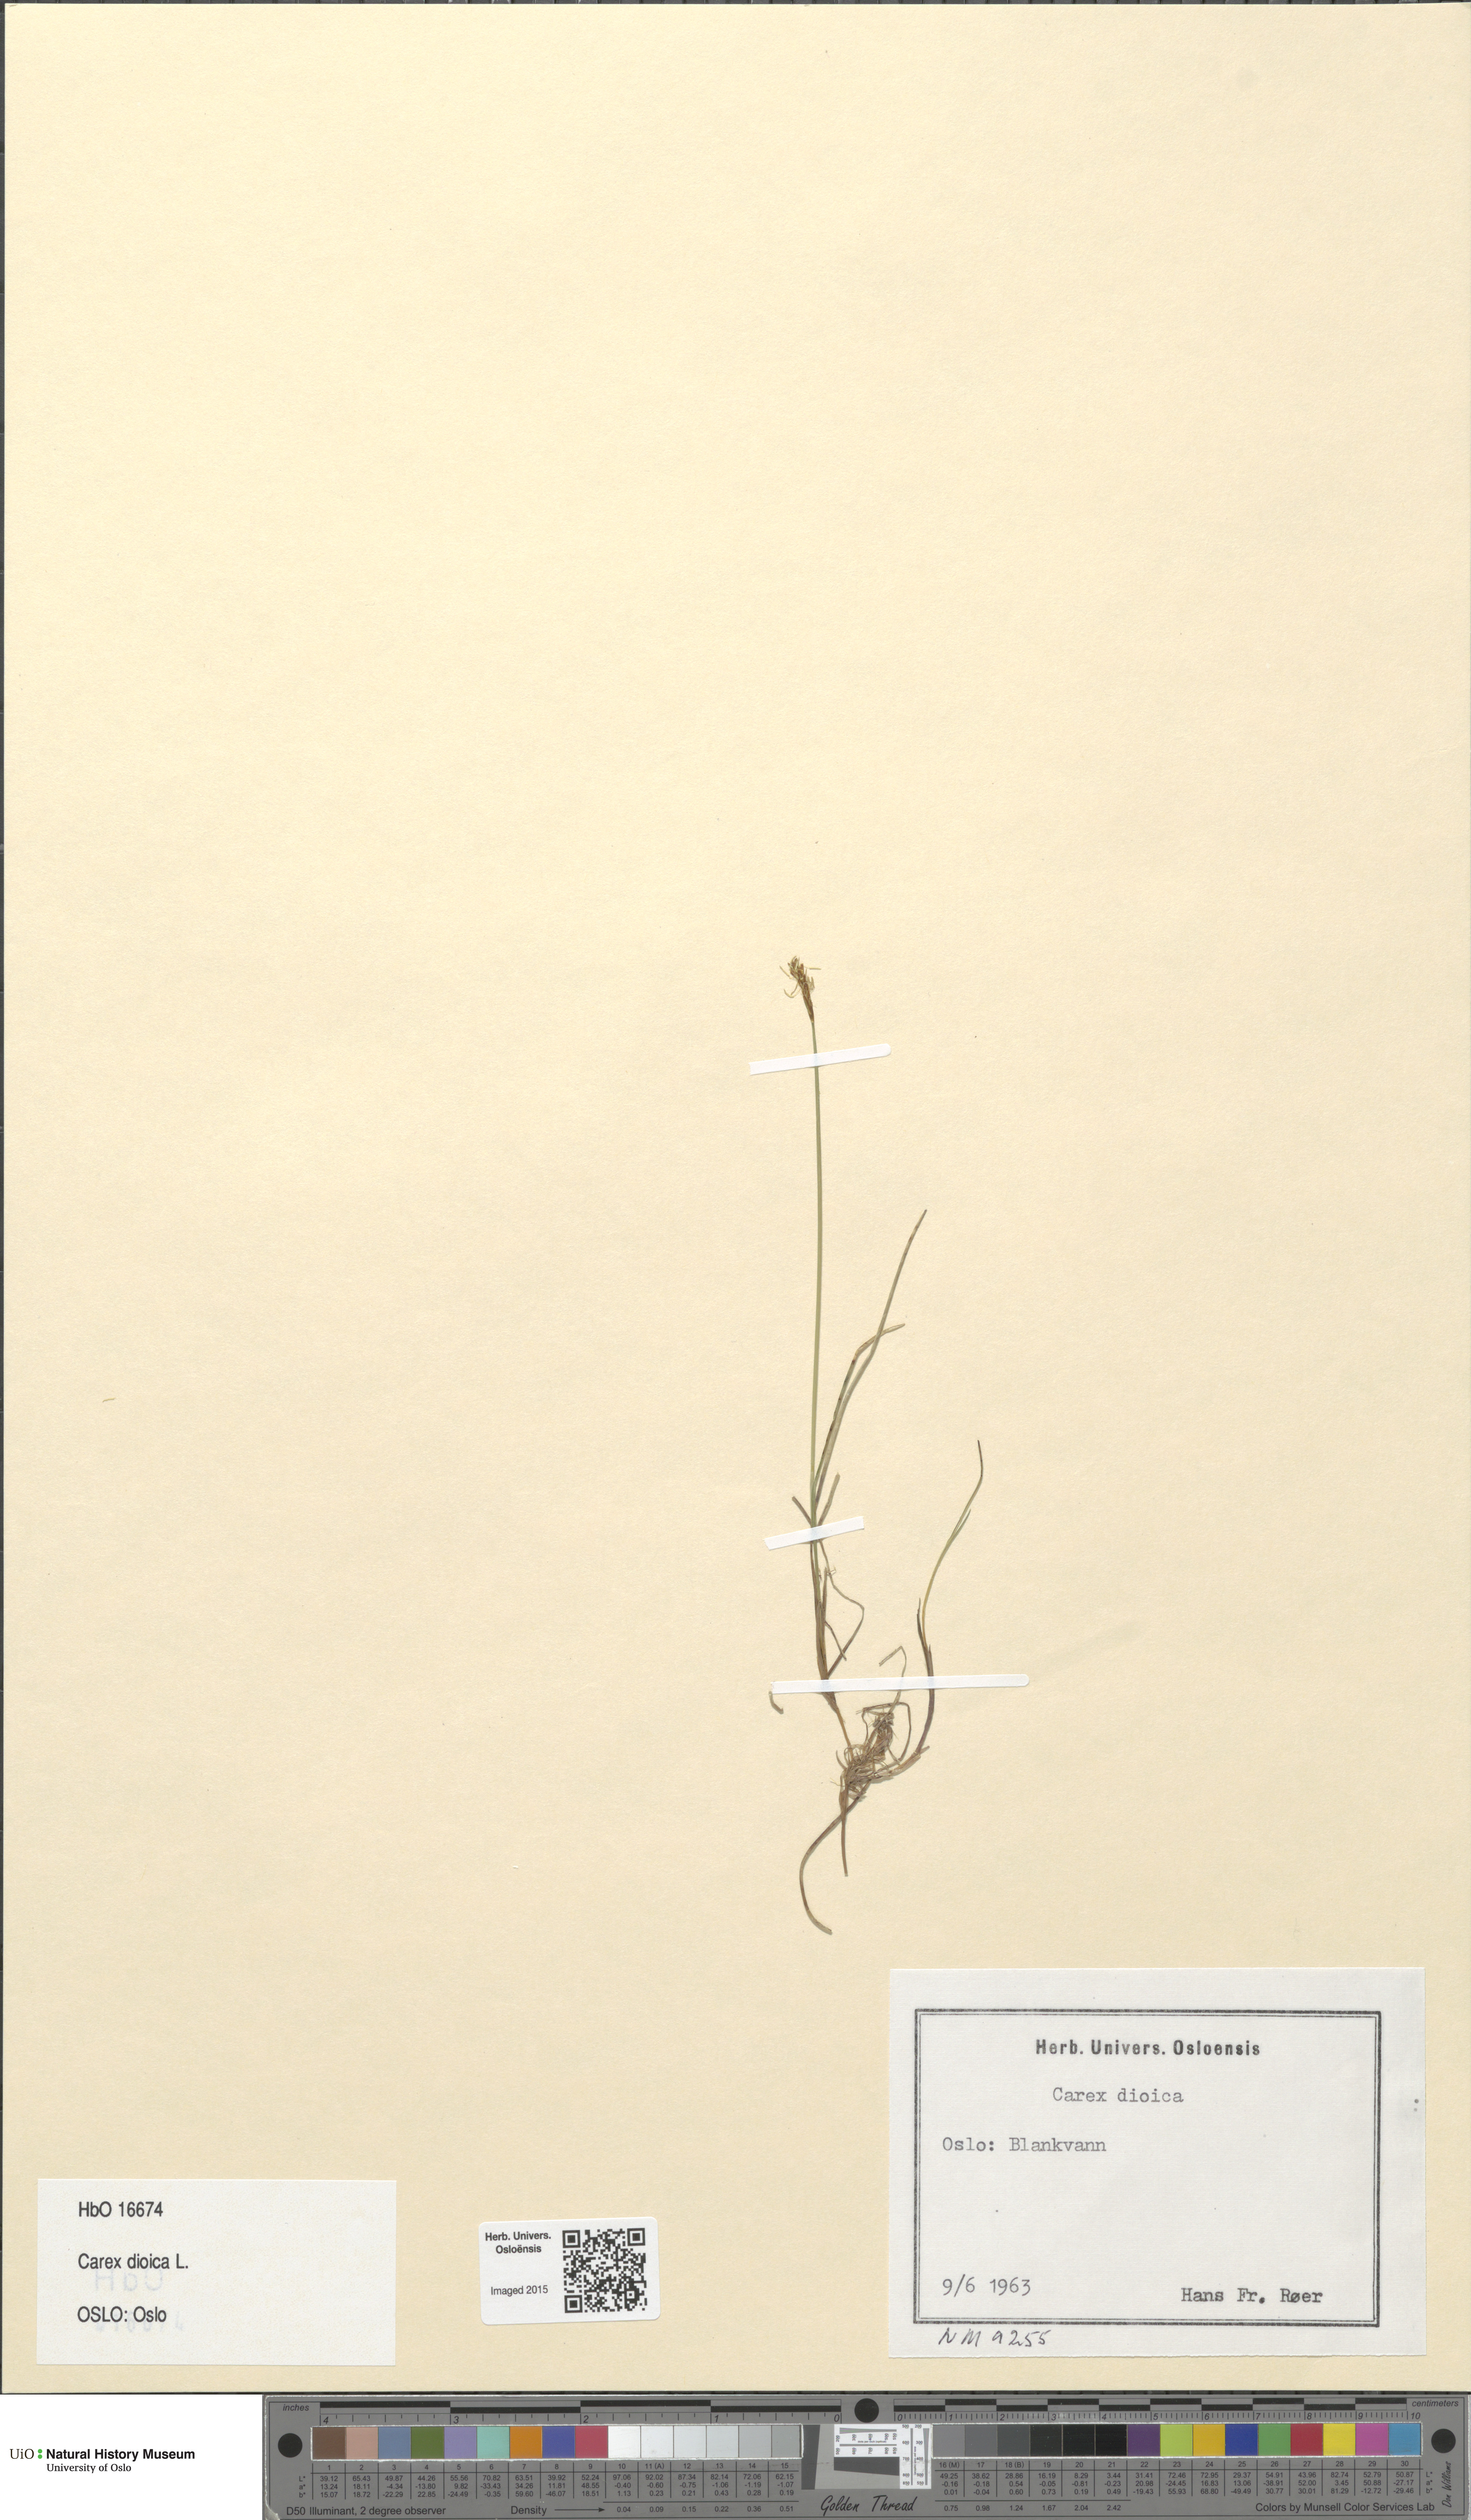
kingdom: Plantae
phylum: Tracheophyta
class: Liliopsida
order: Poales
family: Cyperaceae
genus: Carex
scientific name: Carex dioica
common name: Dioecious sedge
